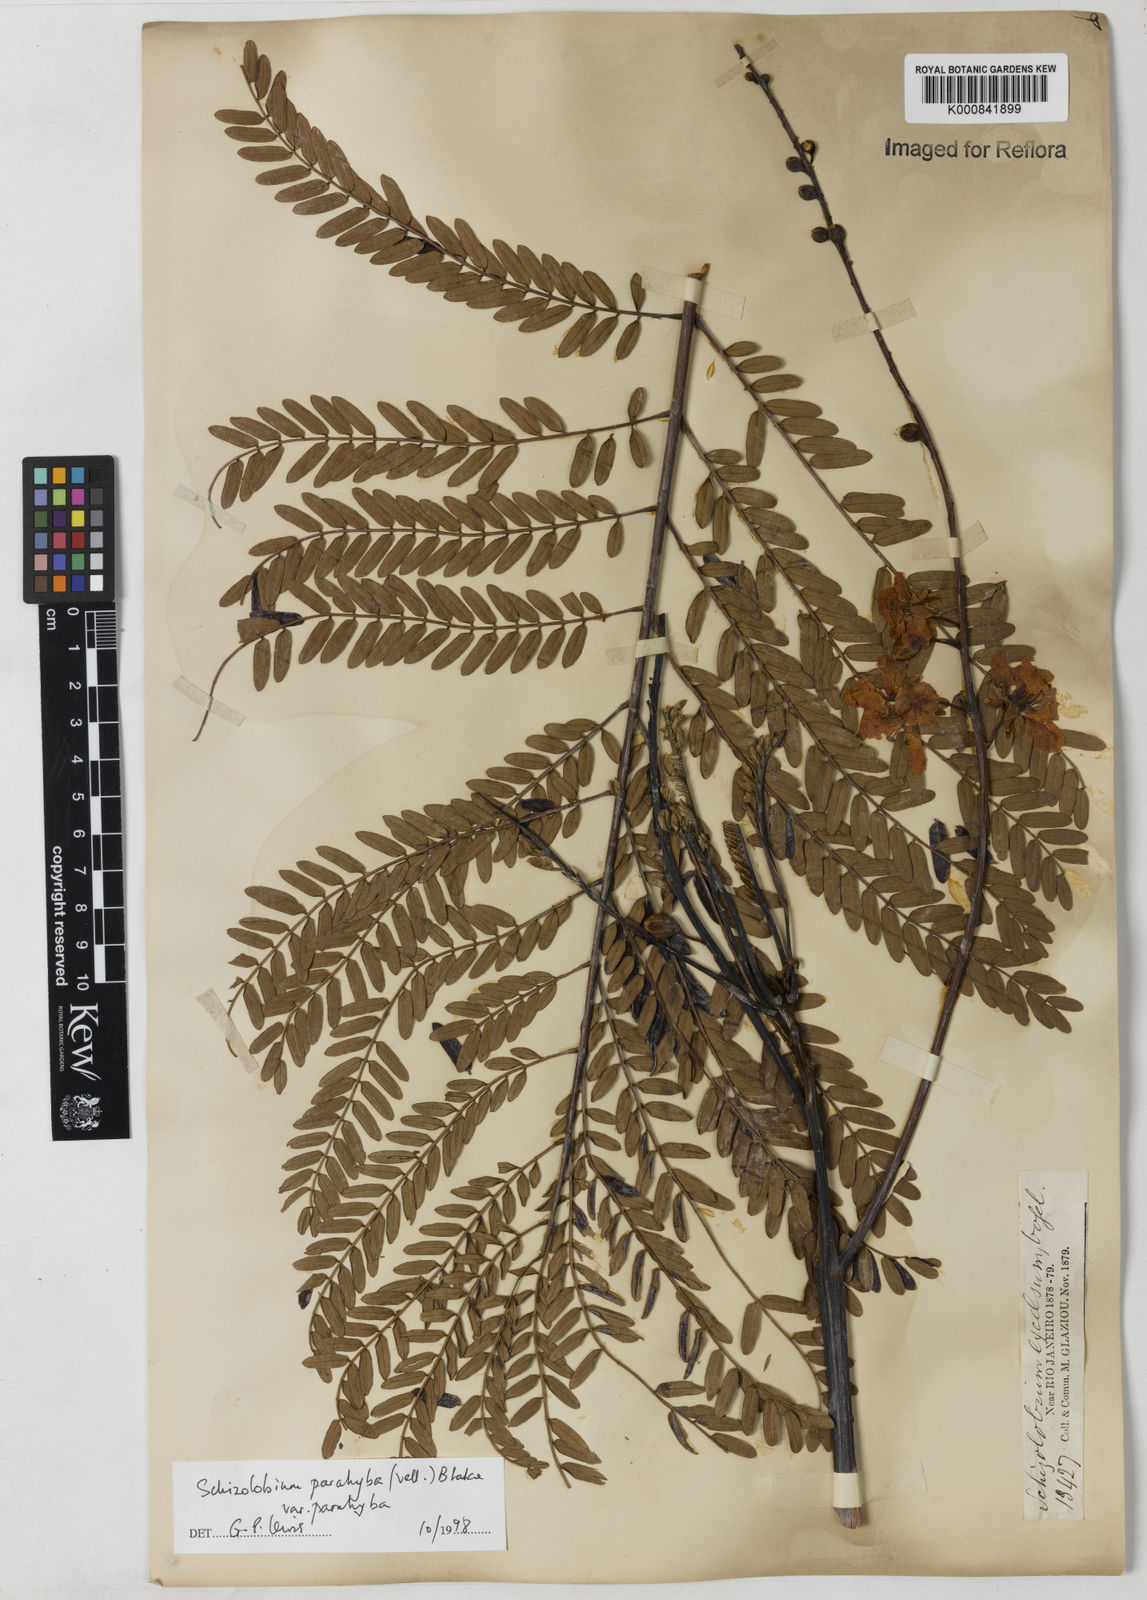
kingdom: Plantae
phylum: Tracheophyta
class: Magnoliopsida
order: Fabales
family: Fabaceae
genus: Schizolobium
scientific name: Schizolobium parahyba
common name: Brazilian firetree
